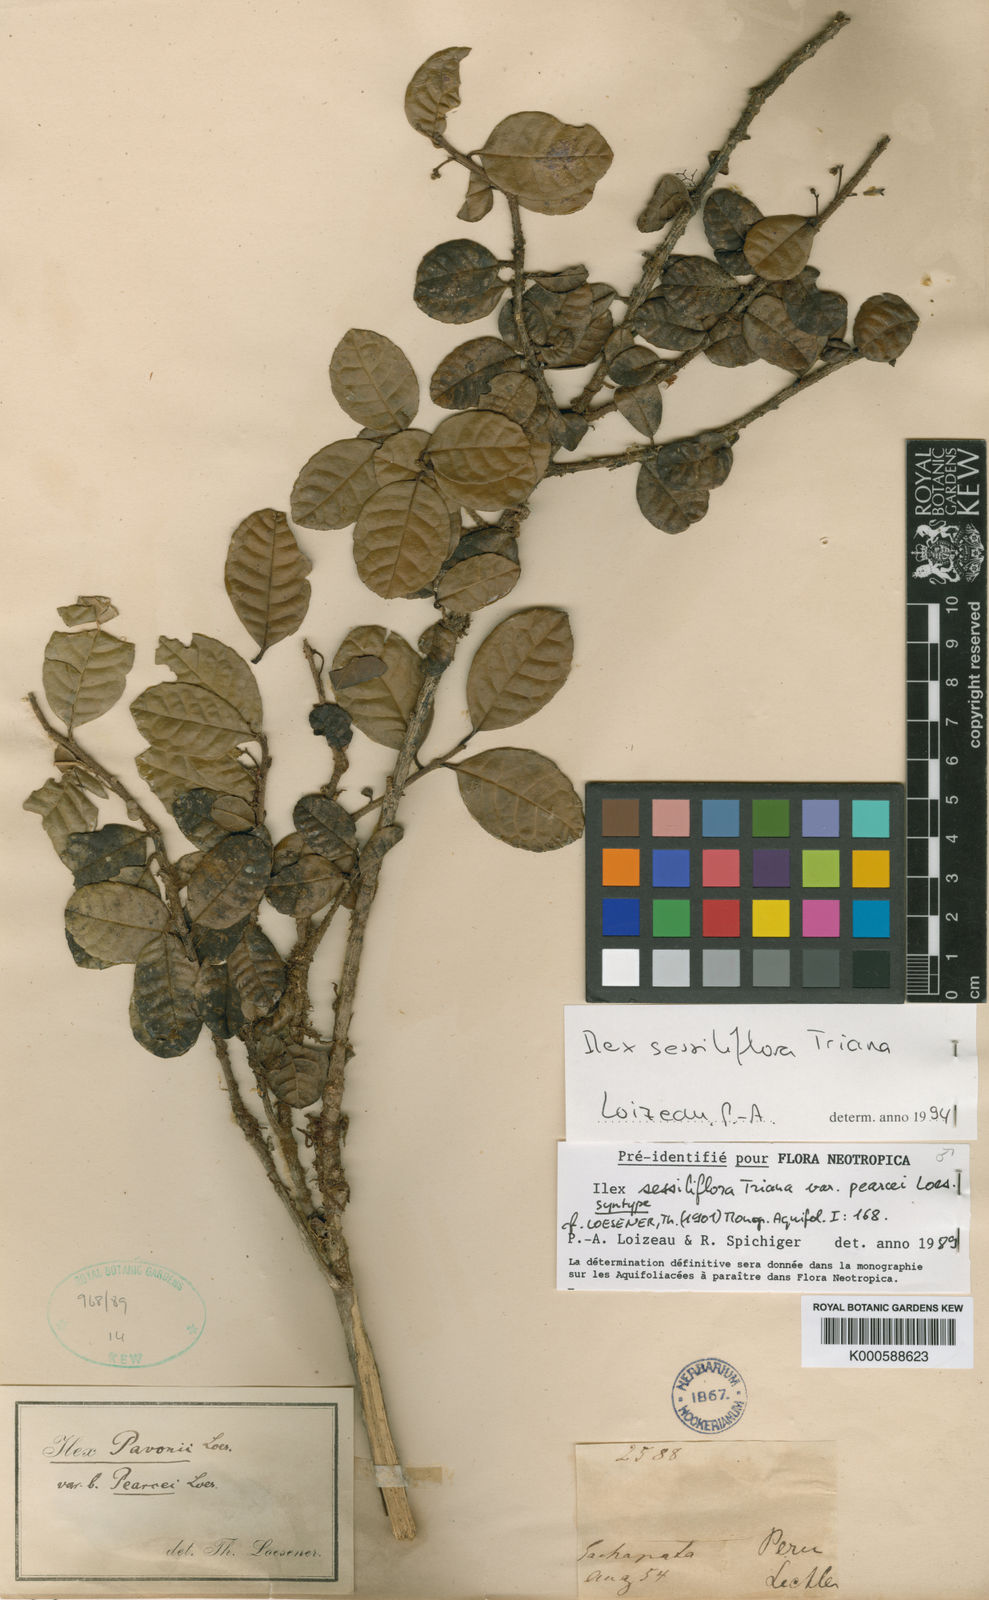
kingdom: Plantae
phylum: Tracheophyta
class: Magnoliopsida
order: Aquifoliales
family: Aquifoliaceae
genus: Ilex
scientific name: Ilex sessiliflora
